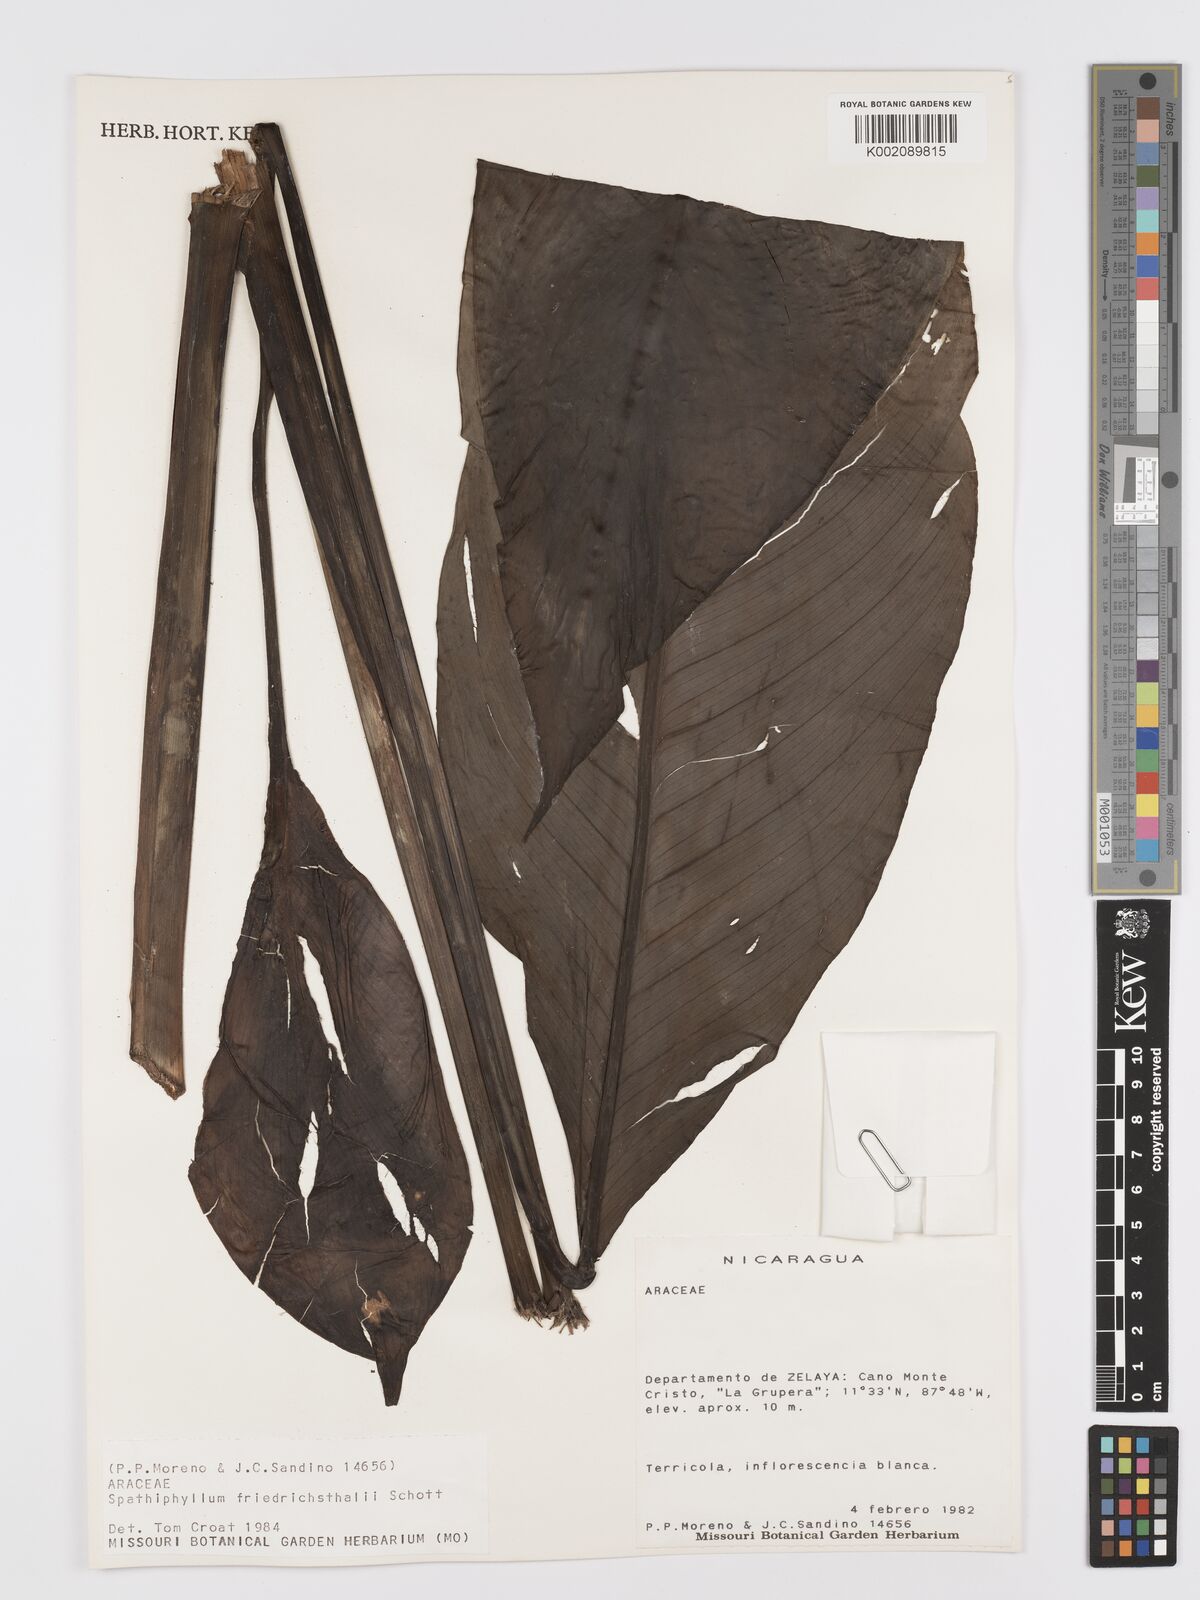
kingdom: Plantae
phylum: Tracheophyta
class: Liliopsida
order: Alismatales
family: Araceae
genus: Spathiphyllum
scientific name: Spathiphyllum friedrichsthalii
